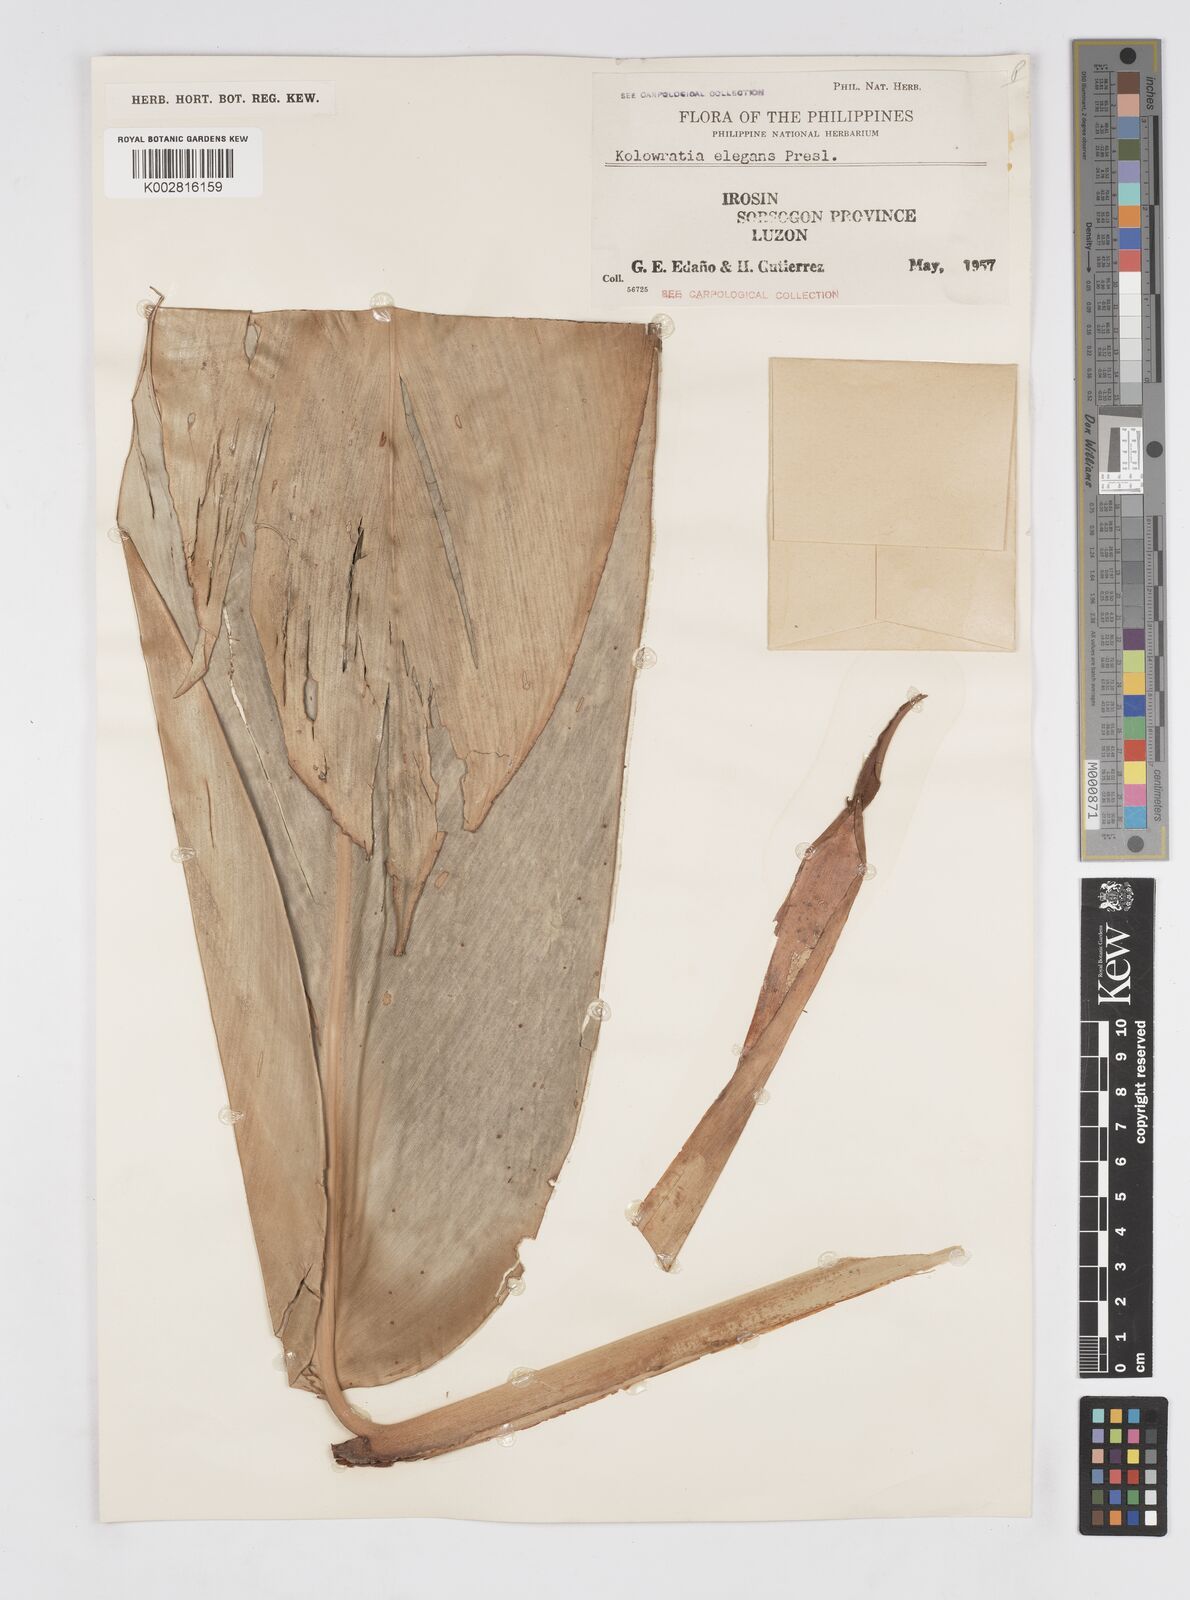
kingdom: Plantae
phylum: Tracheophyta
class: Liliopsida
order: Zingiberales
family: Zingiberaceae
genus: Alpinia
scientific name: Alpinia elegans
